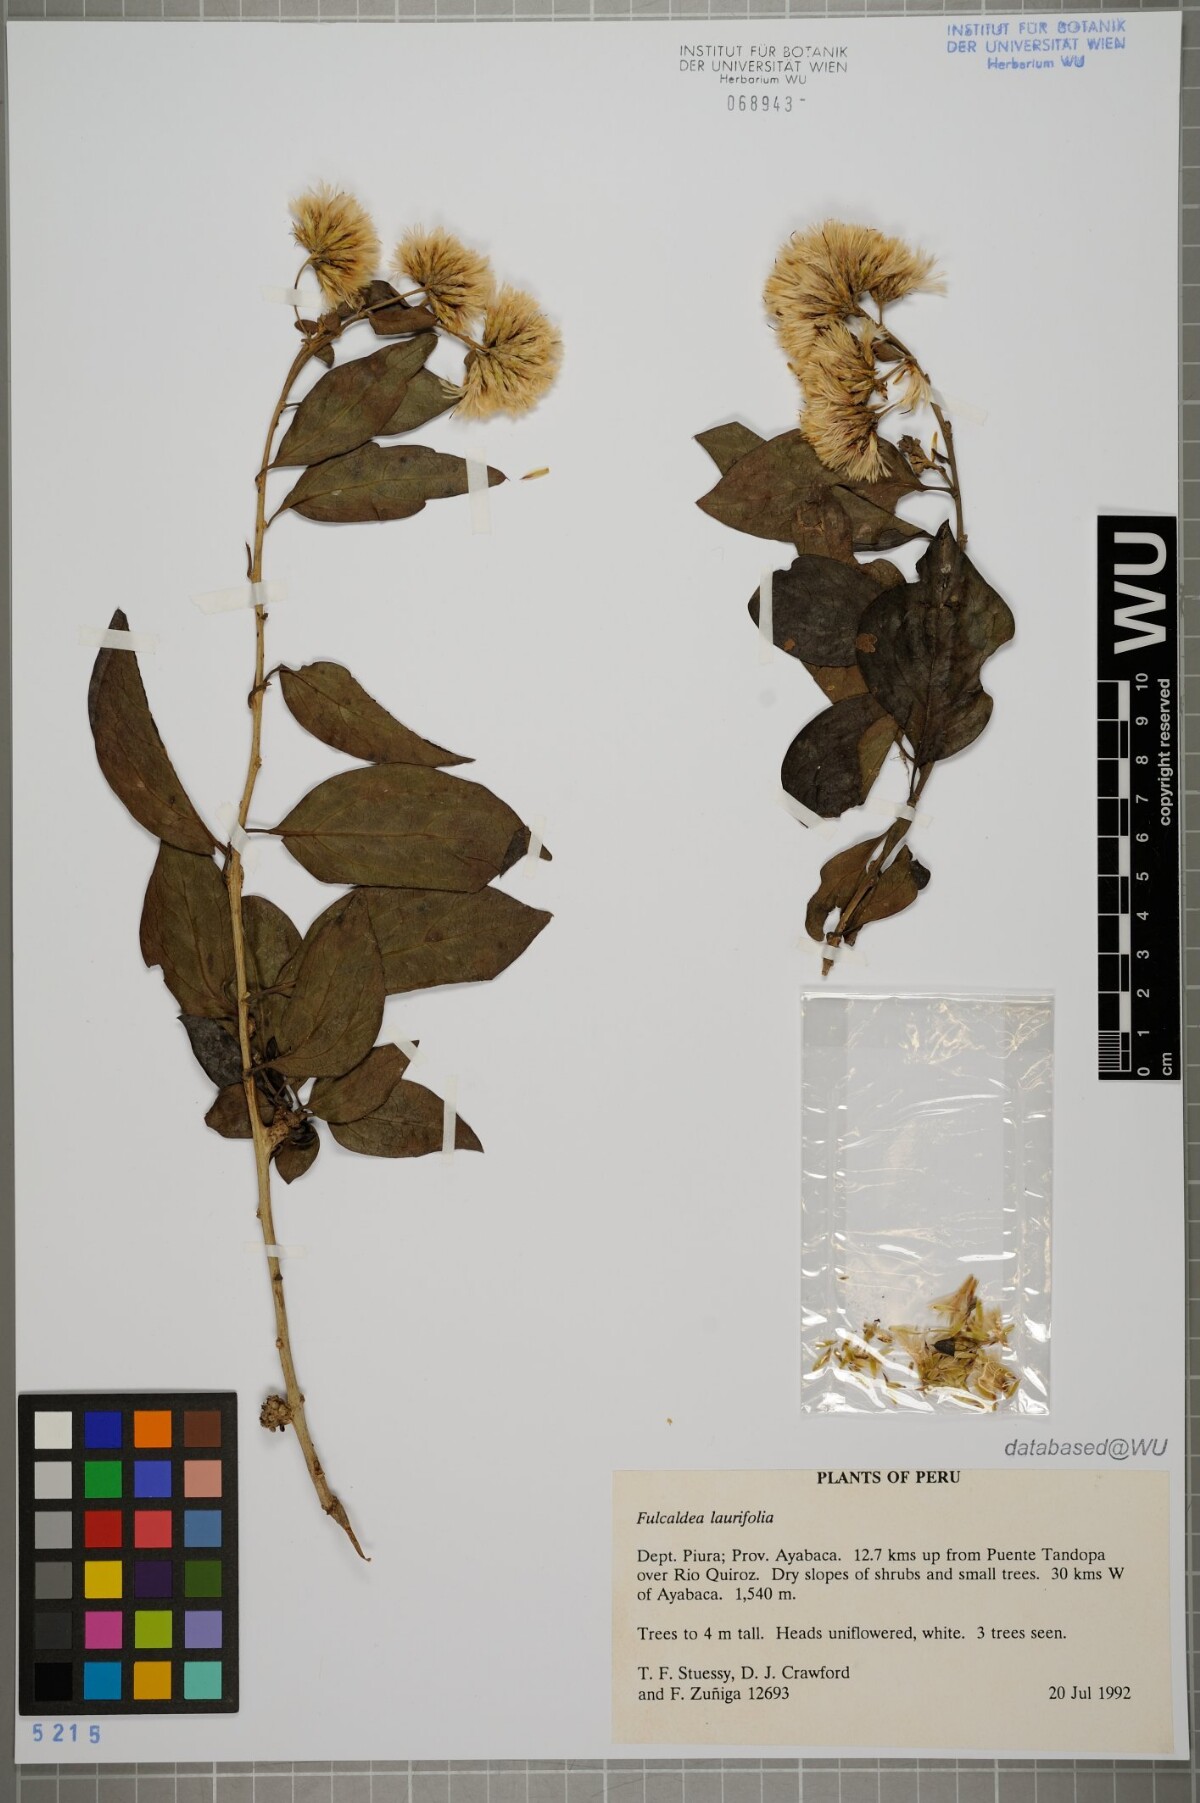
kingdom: Plantae
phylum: Tracheophyta
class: Magnoliopsida
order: Asterales
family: Asteraceae
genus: Fulcaldea
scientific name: Fulcaldea laurifolia
